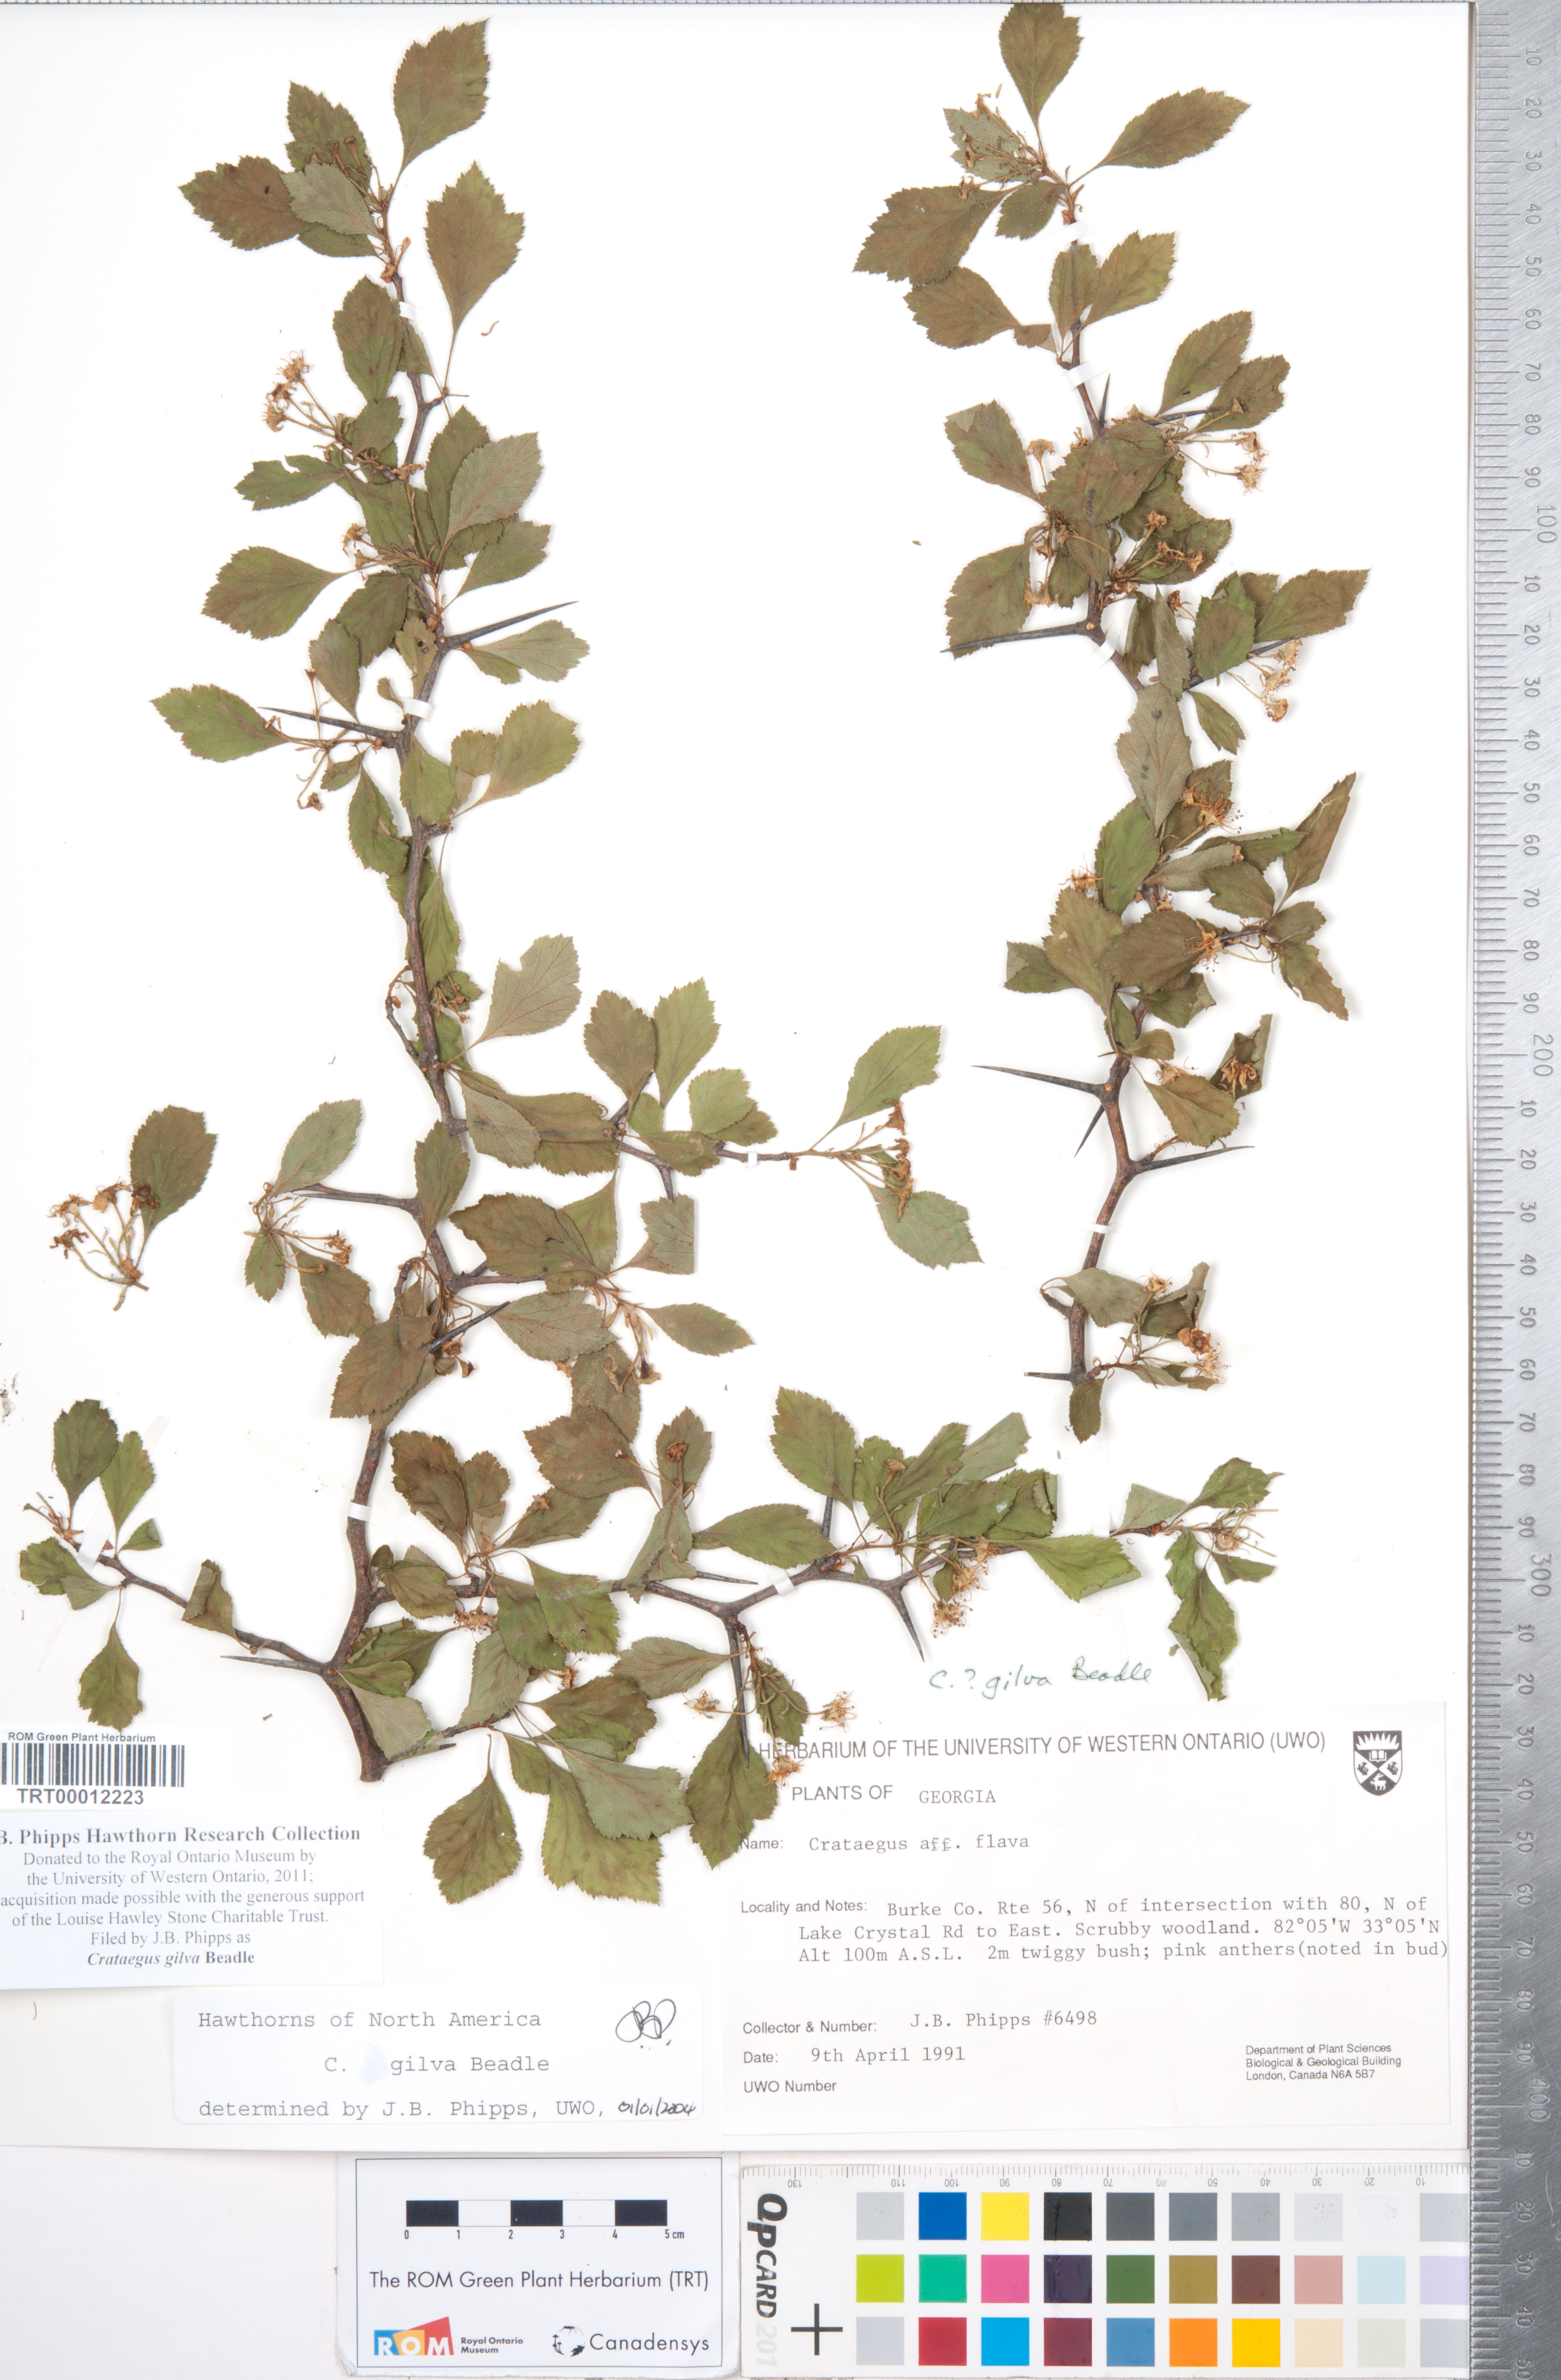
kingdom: Plantae
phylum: Tracheophyta
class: Magnoliopsida
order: Rosales
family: Rosaceae
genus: Crataegus
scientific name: Crataegus sargentii
